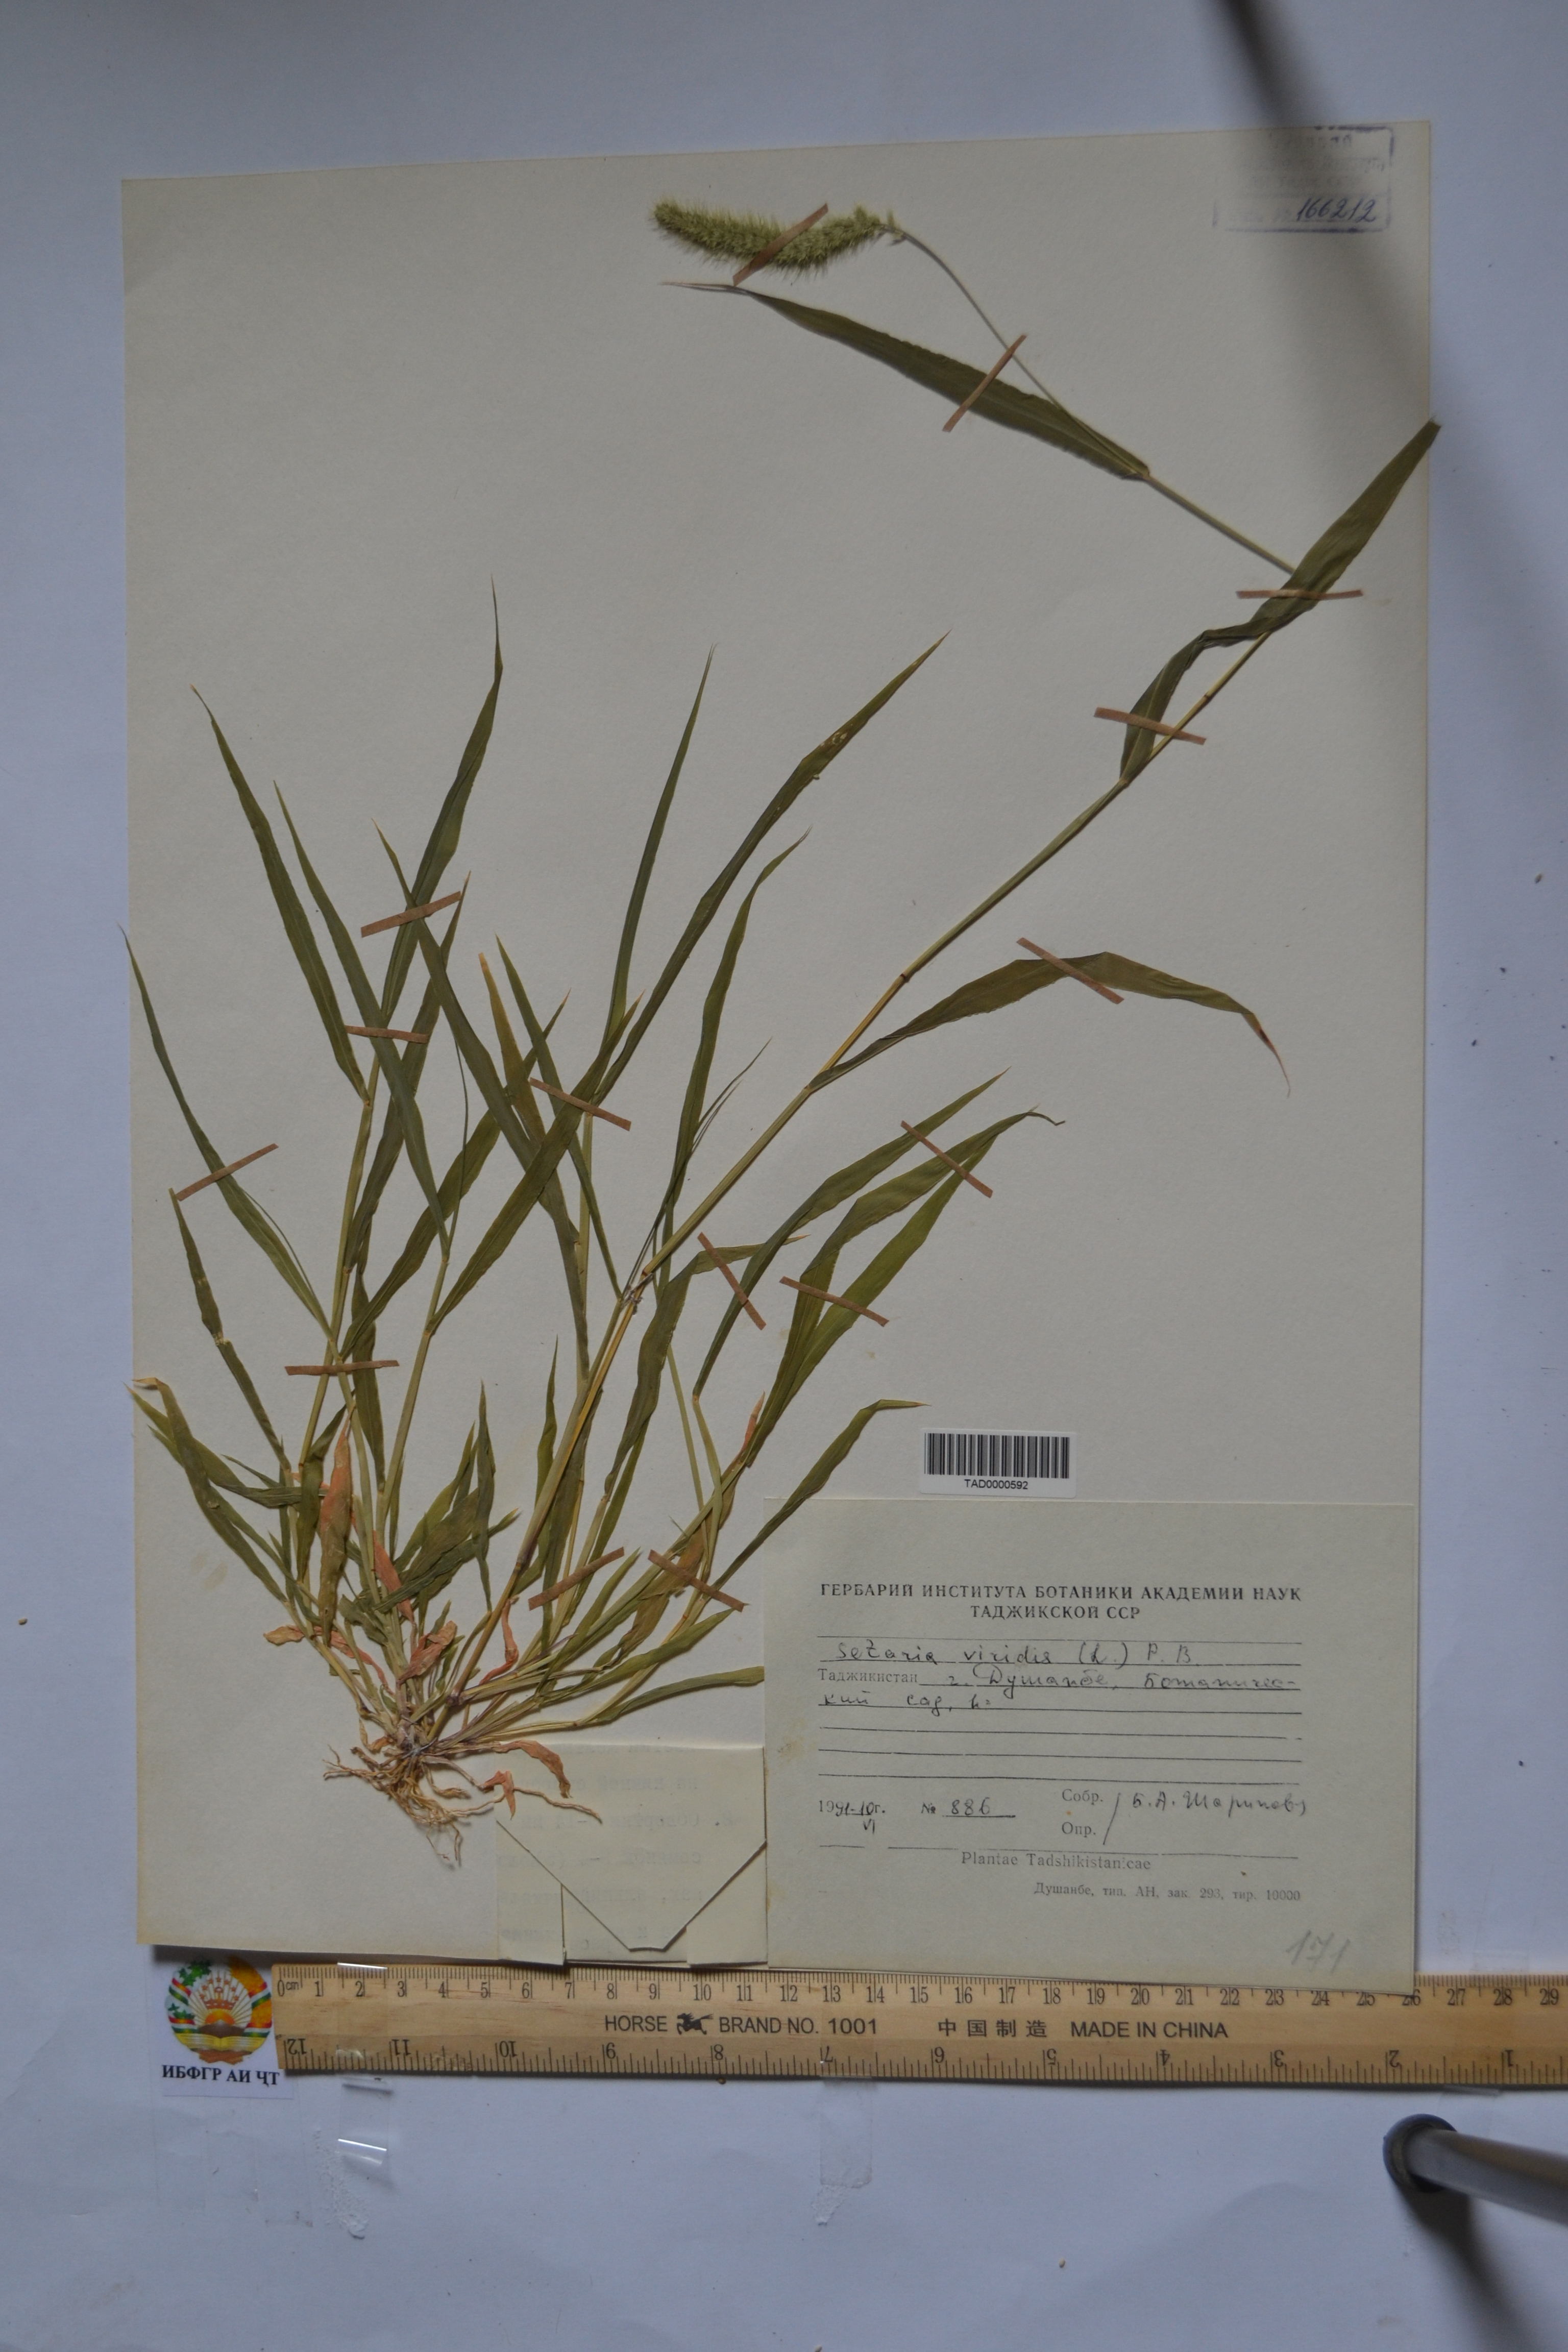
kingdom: Plantae
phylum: Tracheophyta
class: Liliopsida
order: Poales
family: Poaceae
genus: Setaria
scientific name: Setaria viridis
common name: Green bristlegrass
